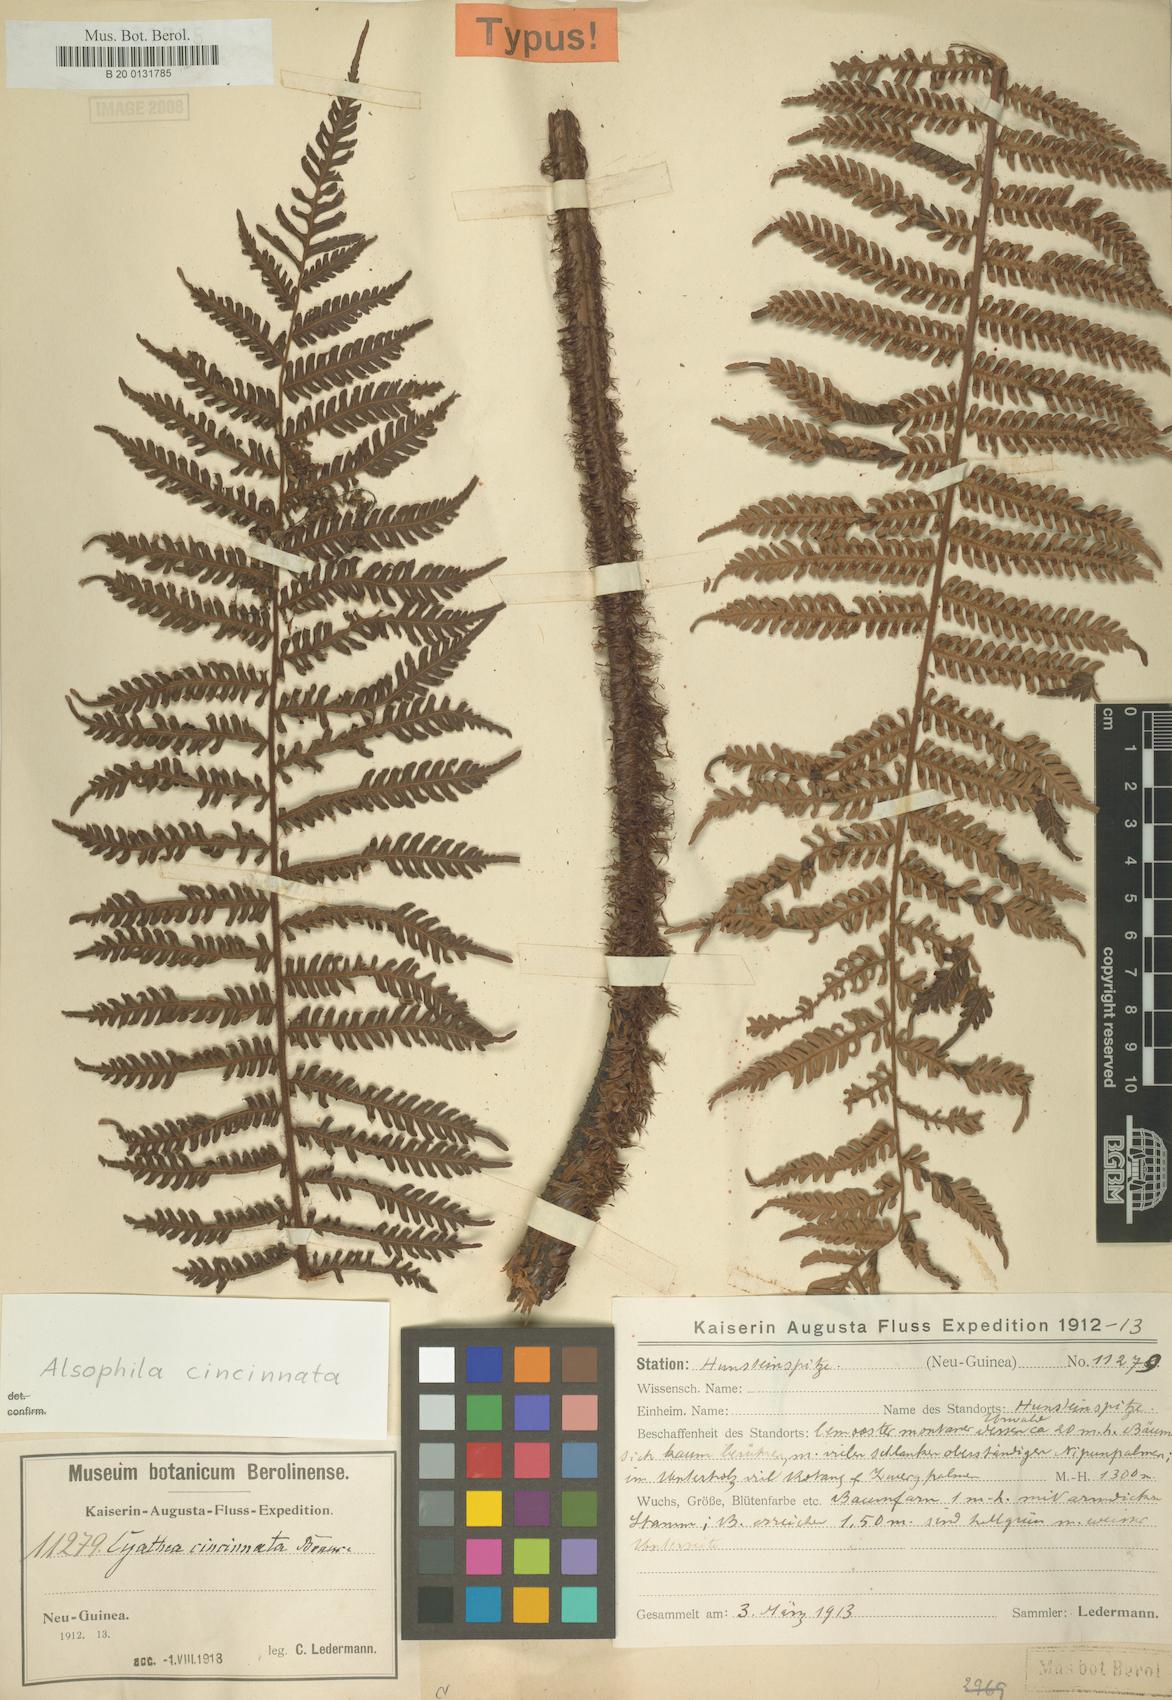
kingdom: Plantae
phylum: Tracheophyta
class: Polypodiopsida
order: Cyatheales
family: Cyatheaceae
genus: Alsophila
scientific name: Alsophila cincinnata
